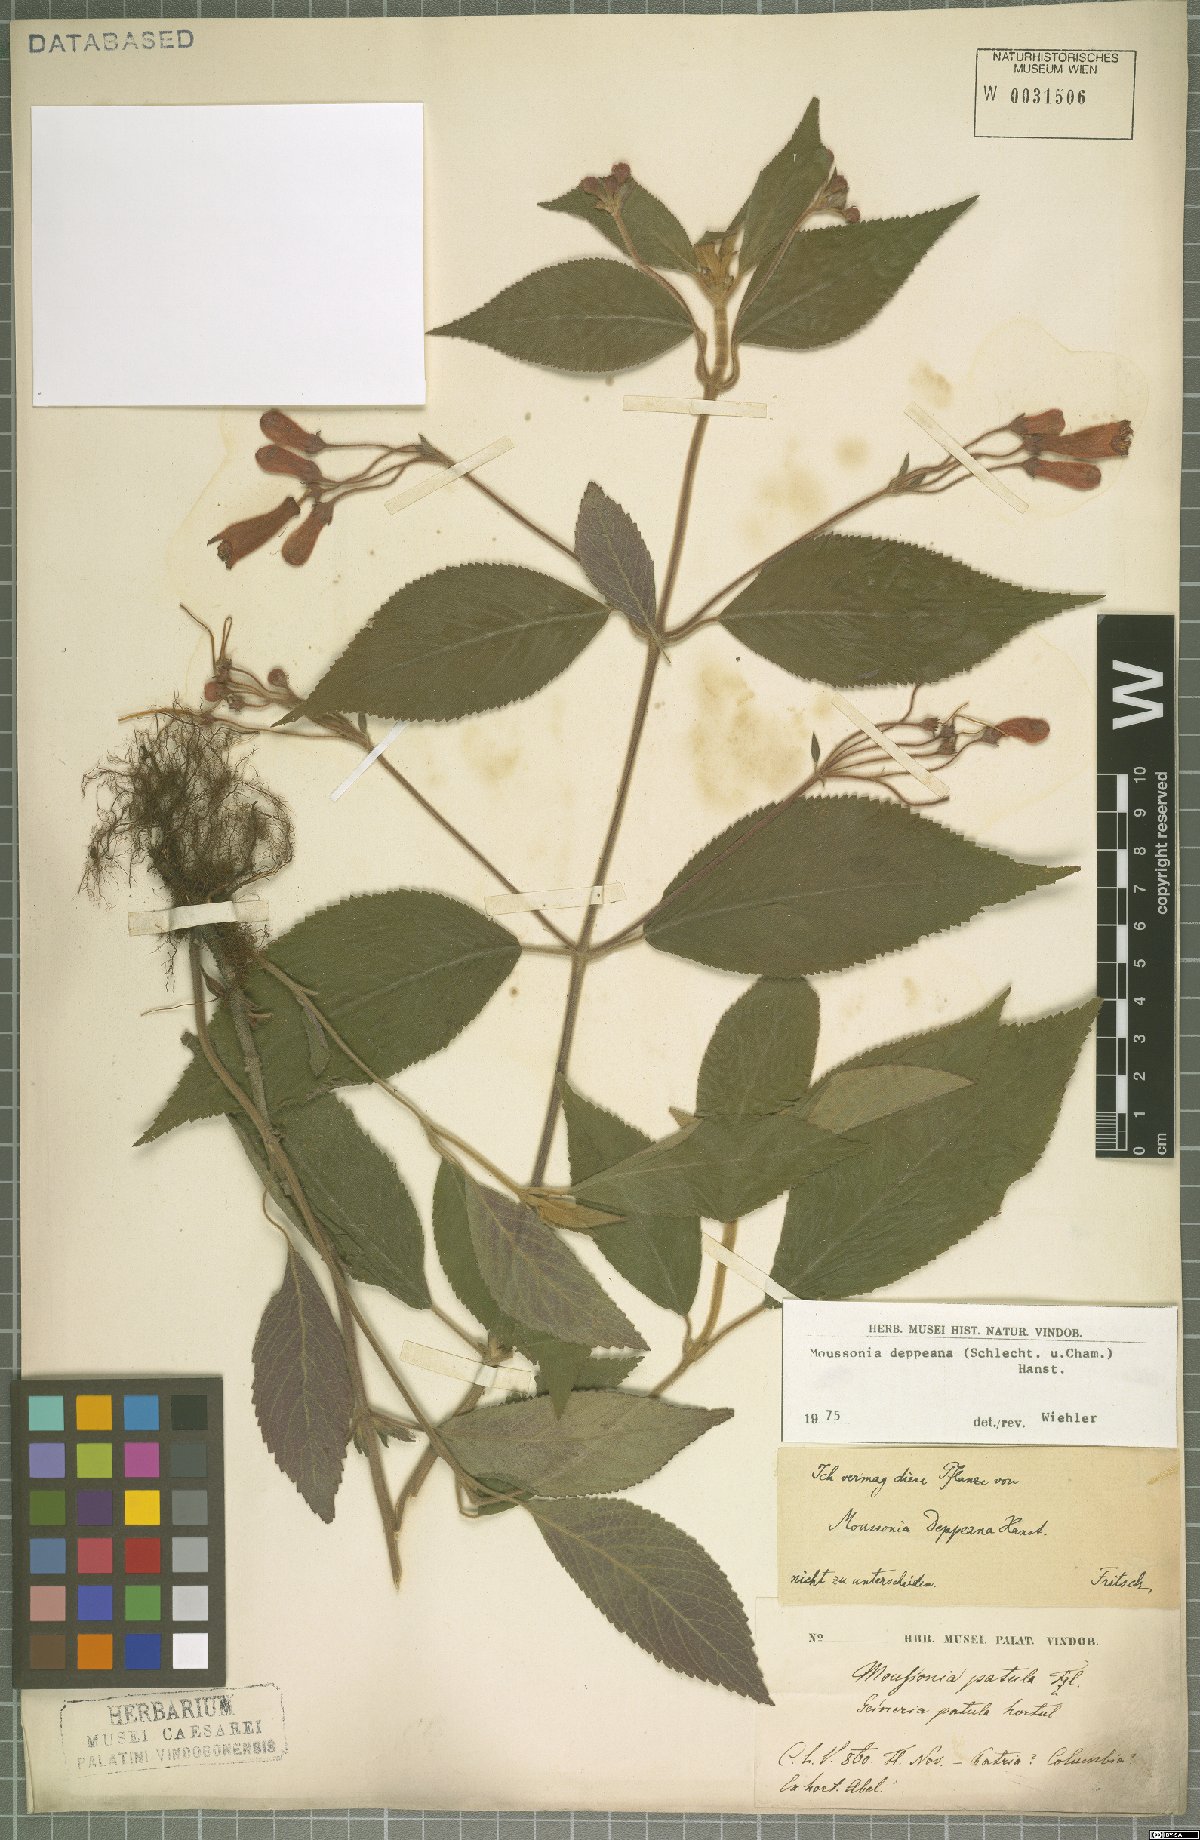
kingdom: Plantae
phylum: Tracheophyta
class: Magnoliopsida
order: Lamiales
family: Gesneriaceae
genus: Moussonia
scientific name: Moussonia deppeana
